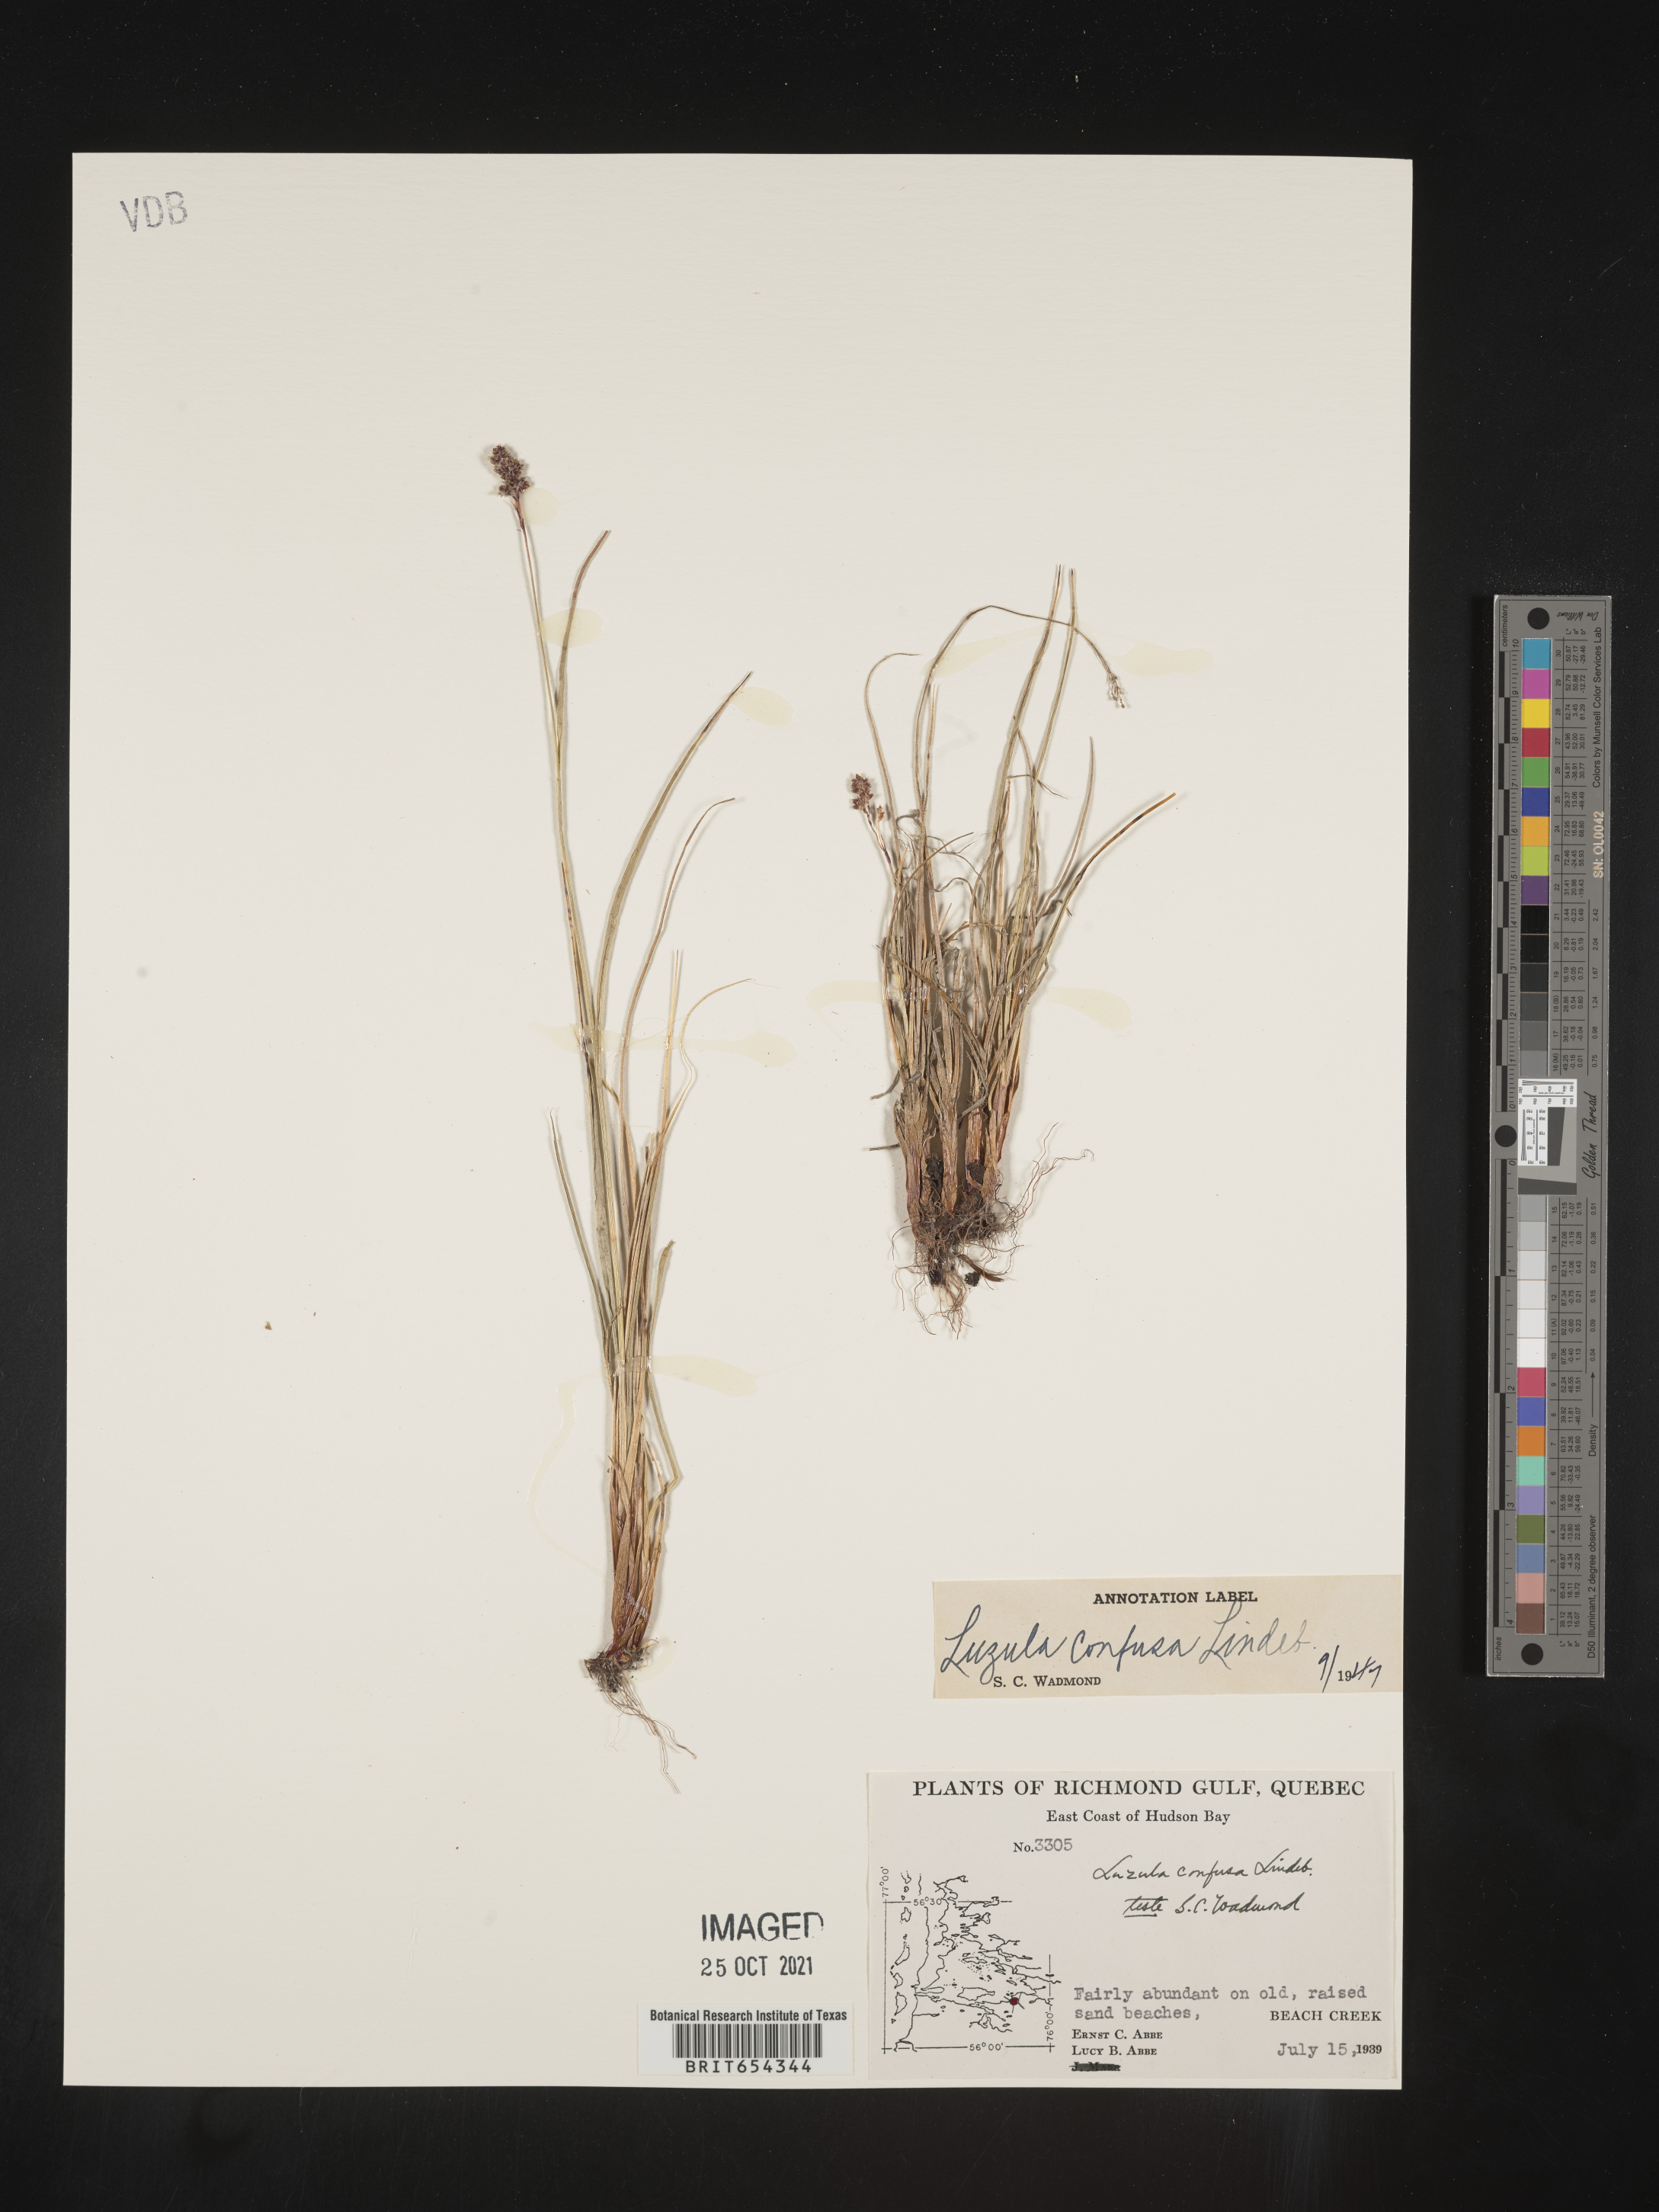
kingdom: Plantae
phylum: Tracheophyta
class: Liliopsida
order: Poales
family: Juncaceae
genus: Luzula
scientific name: Luzula
